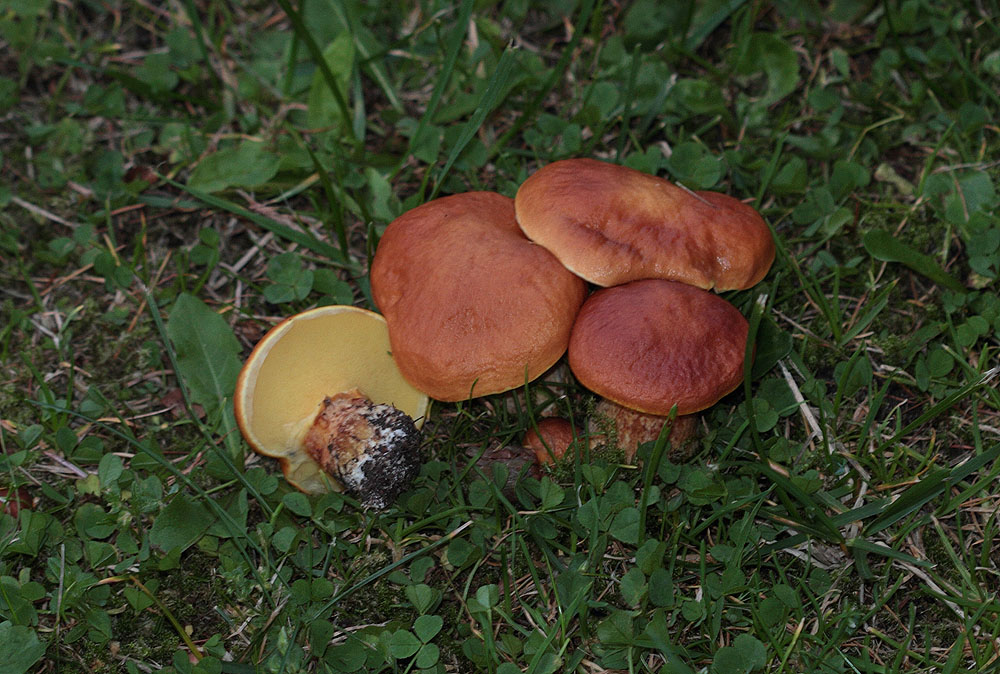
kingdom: Fungi
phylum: Basidiomycota
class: Agaricomycetes
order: Boletales
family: Suillaceae
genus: Suillus
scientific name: Suillus grevillei
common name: Larch bolete
